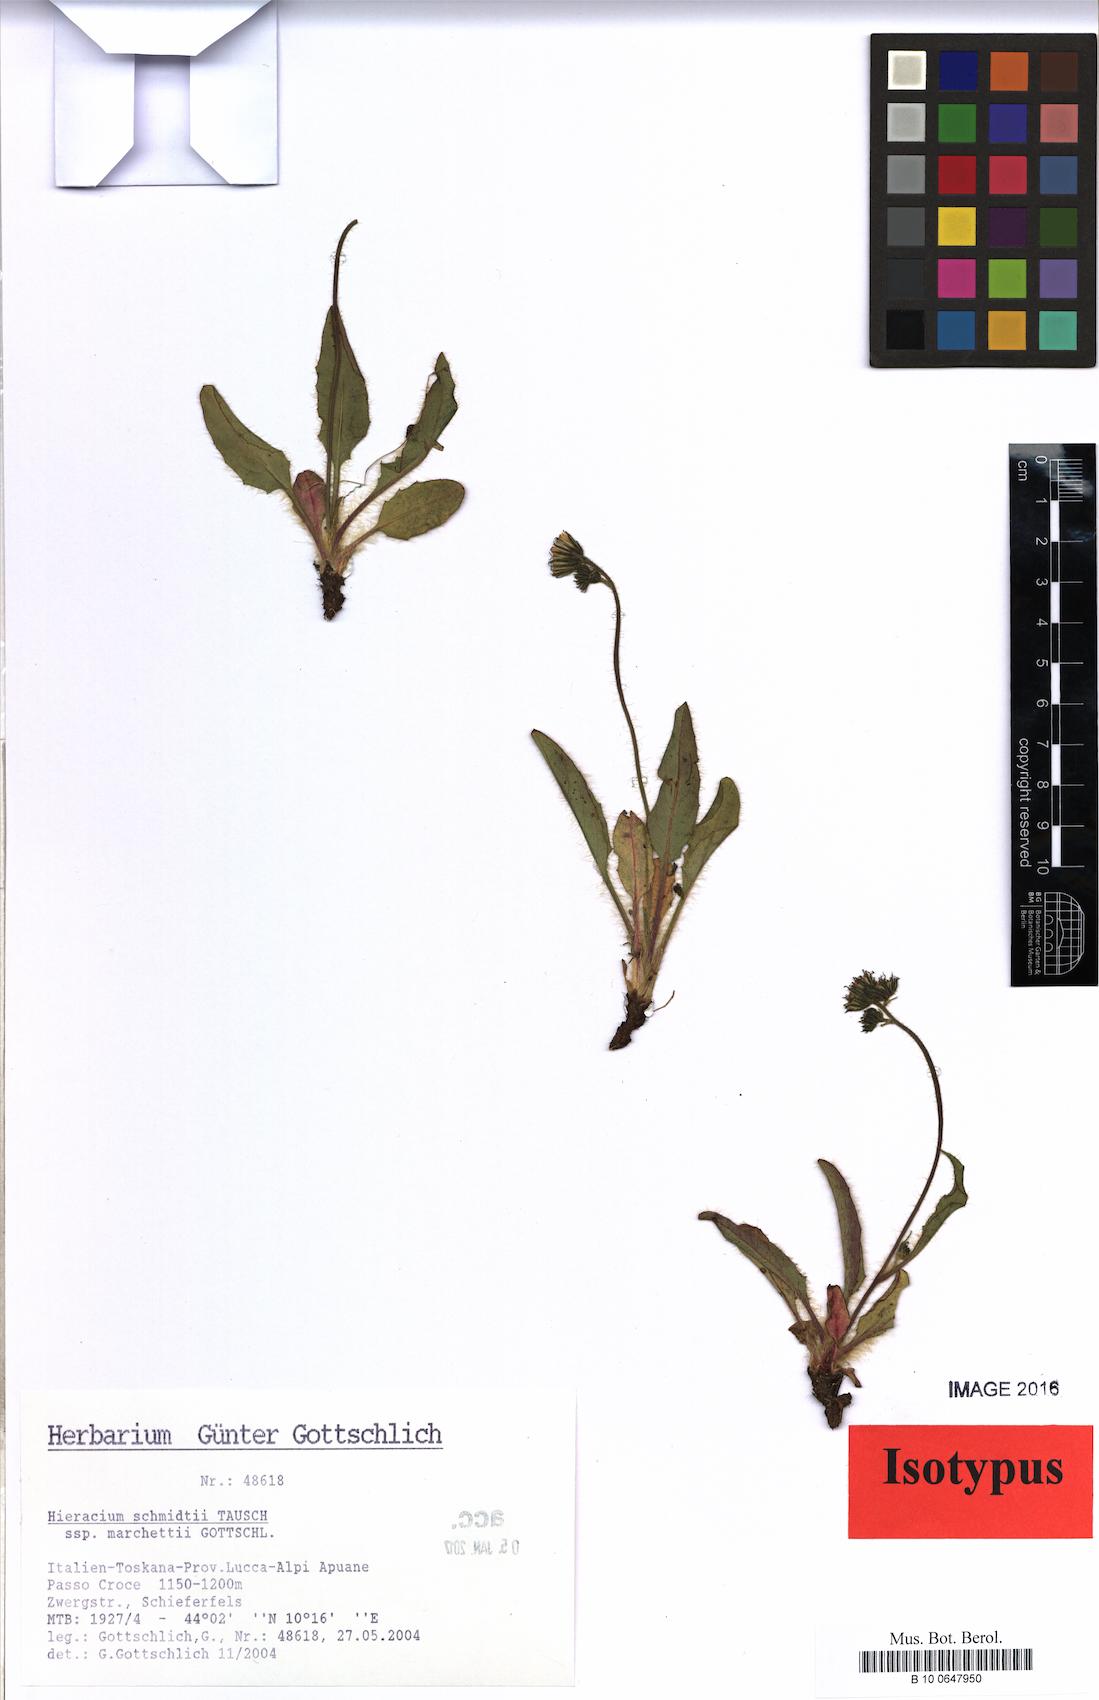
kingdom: Plantae
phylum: Tracheophyta
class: Magnoliopsida
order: Asterales
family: Asteraceae
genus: Hieracium
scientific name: Hieracium schmidtii
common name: Schmidt's hawkweed
